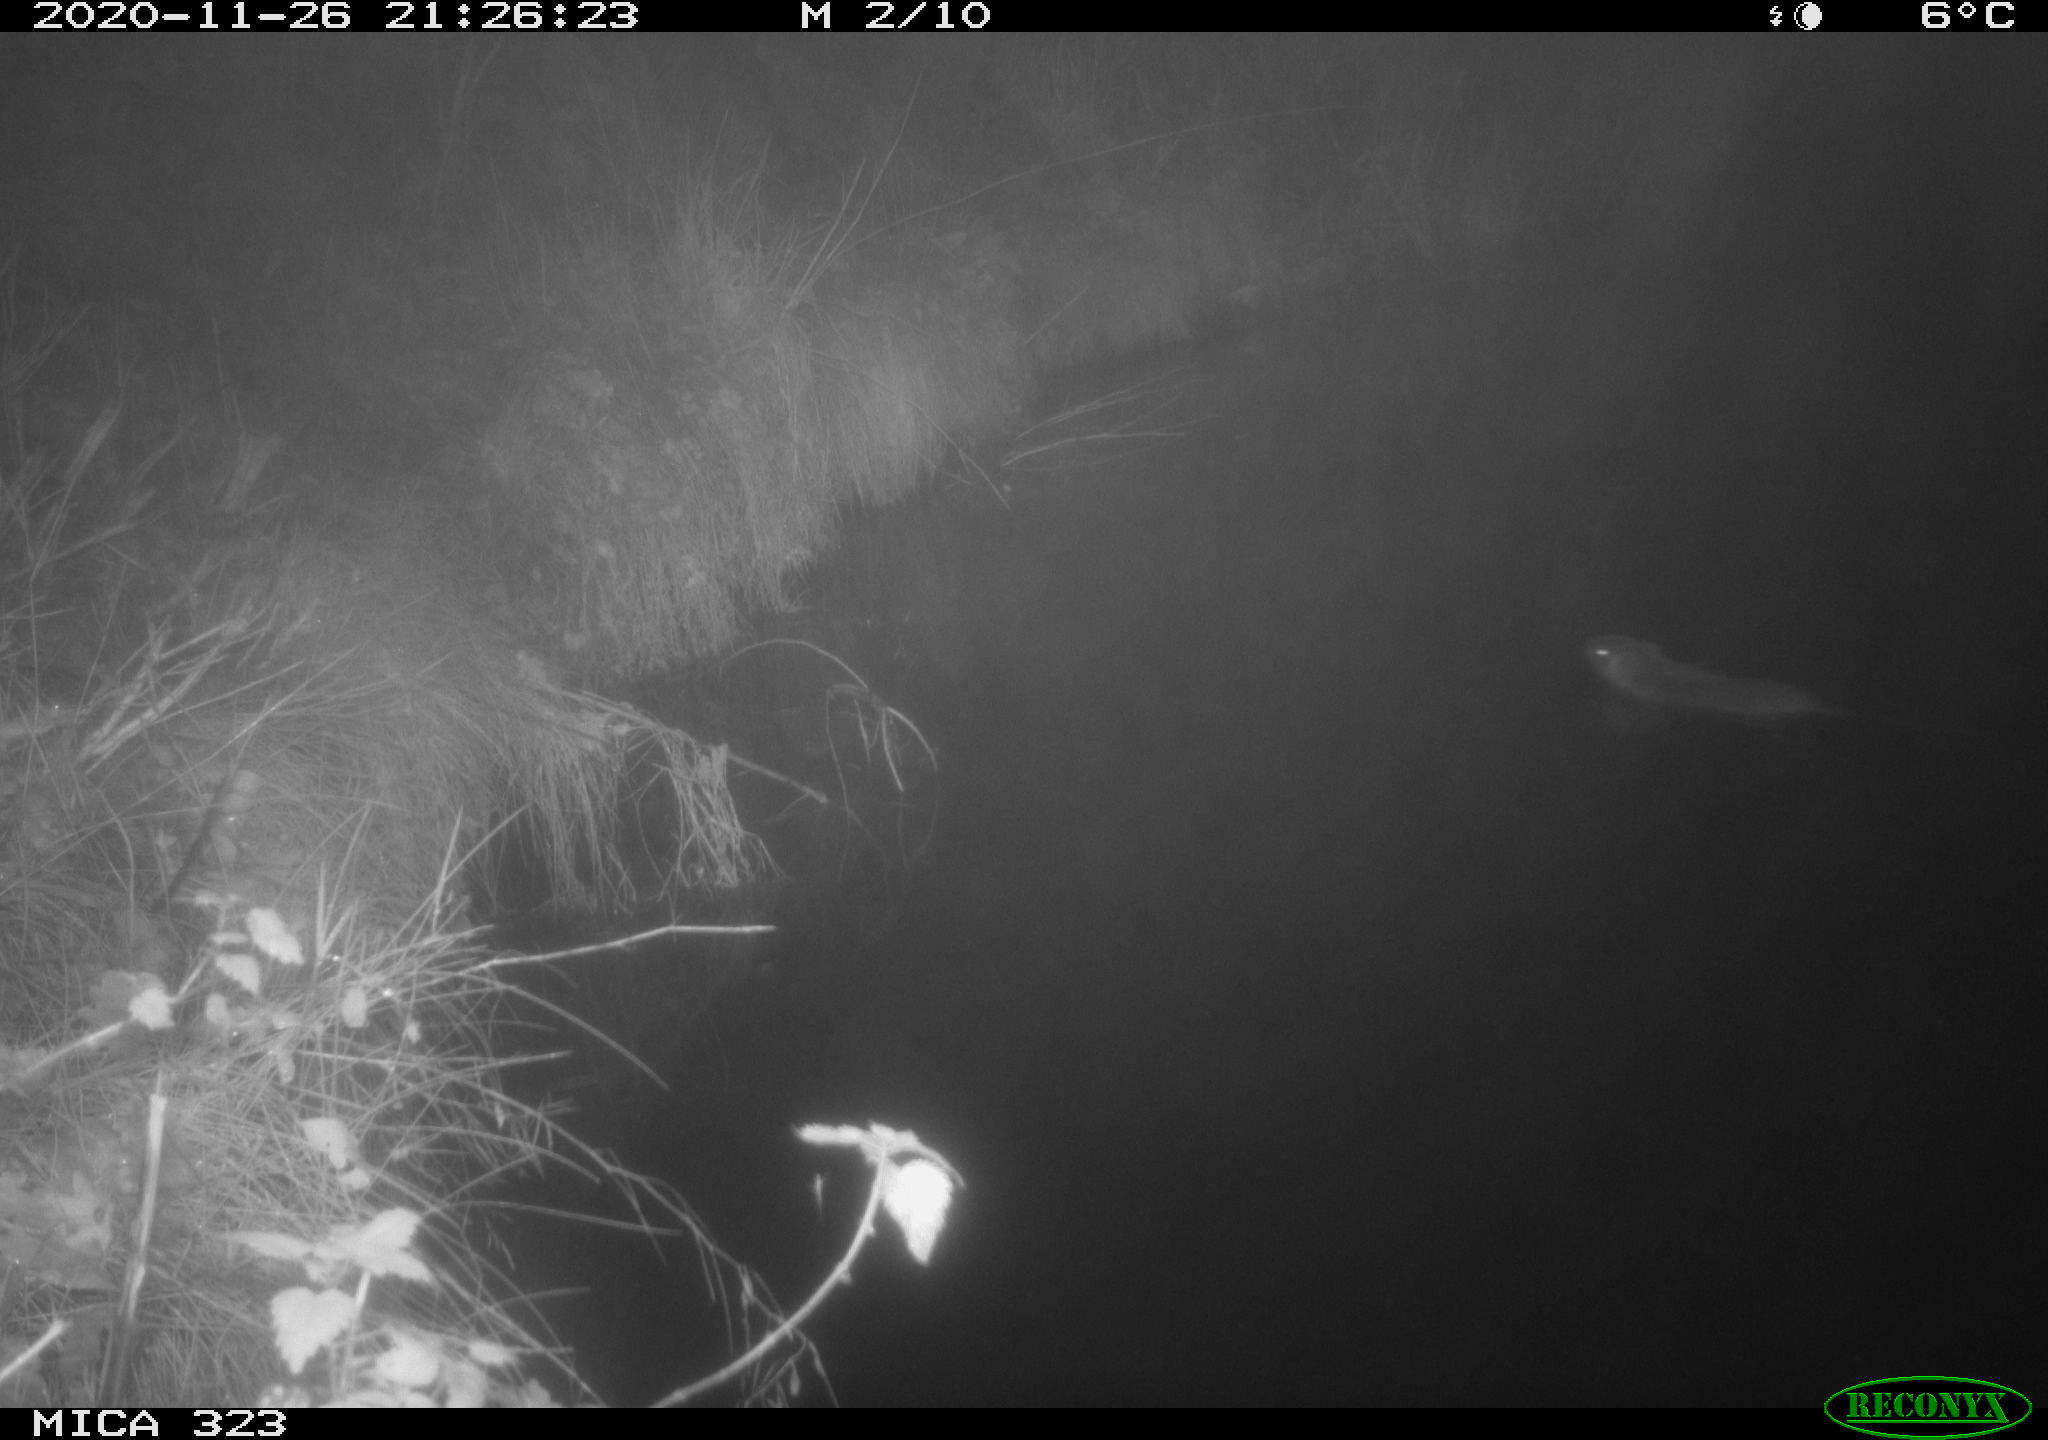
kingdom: Animalia
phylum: Chordata
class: Mammalia
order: Rodentia
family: Myocastoridae
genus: Myocastor
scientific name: Myocastor coypus
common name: Coypu
